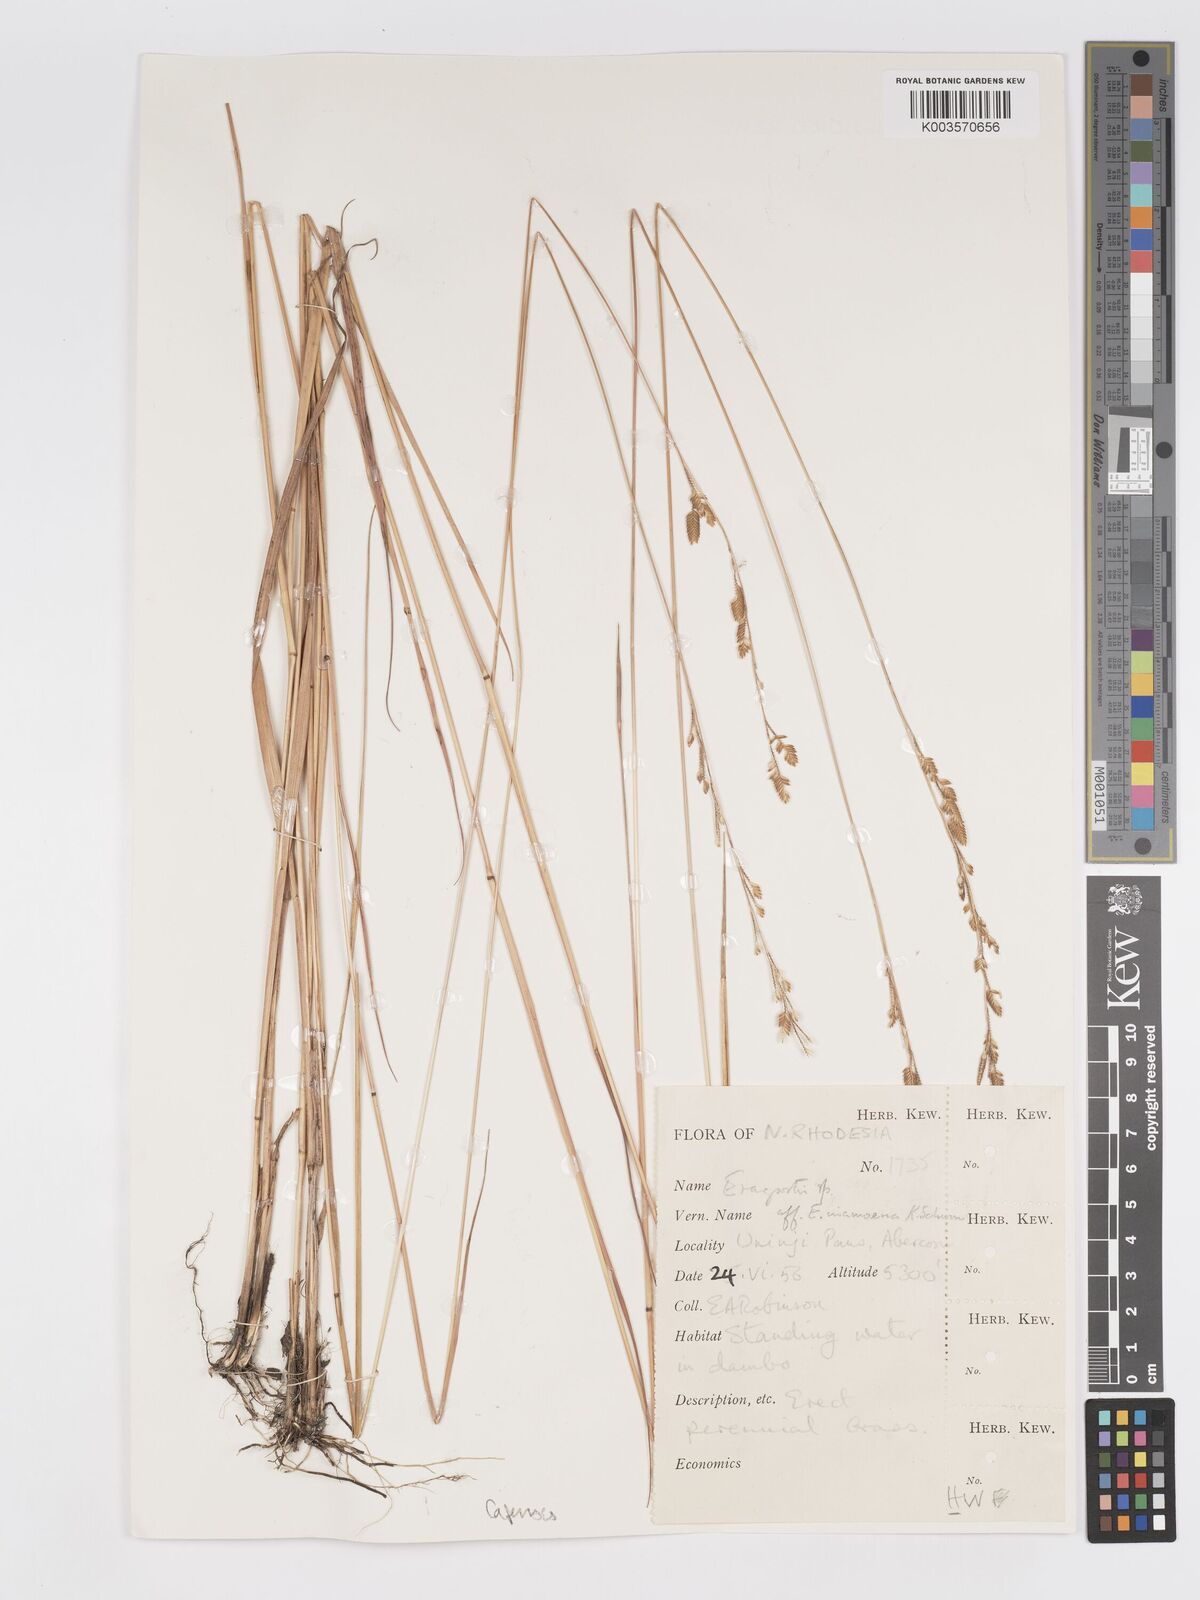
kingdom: Plantae
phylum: Tracheophyta
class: Liliopsida
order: Poales
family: Poaceae
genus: Eragrostis
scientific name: Eragrostis capensis
